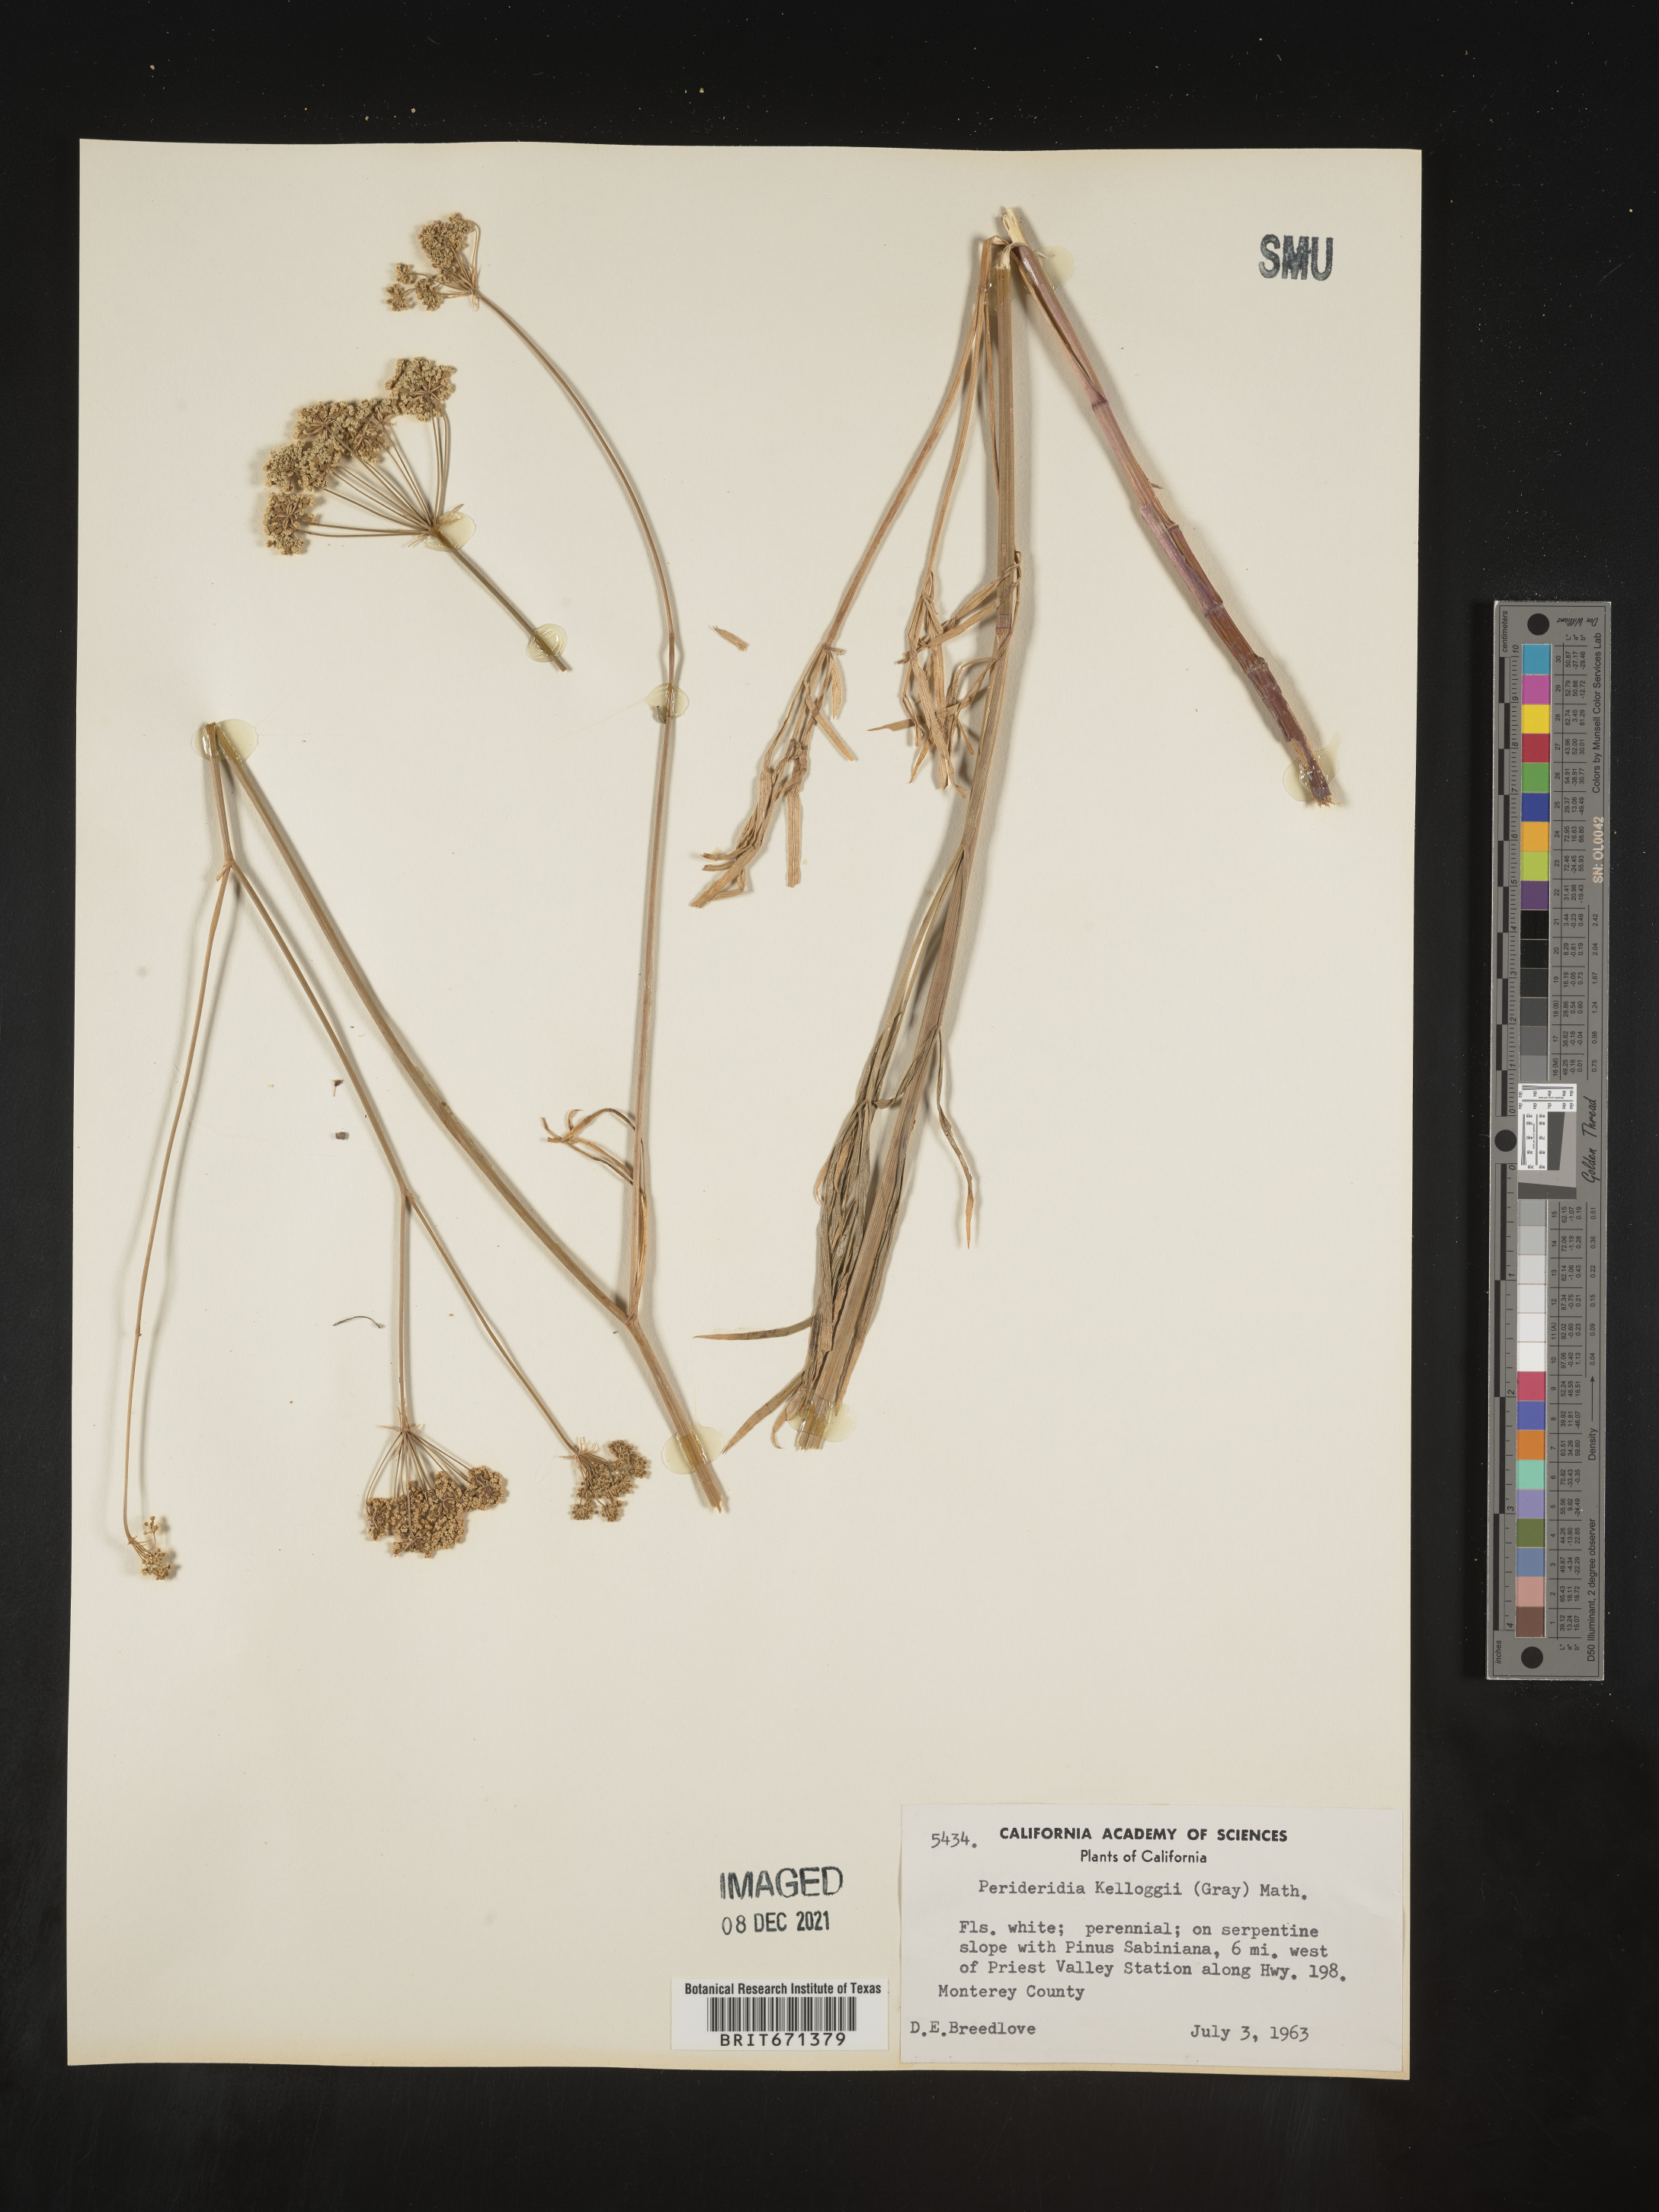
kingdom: Plantae
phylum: Tracheophyta
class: Magnoliopsida
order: Apiales
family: Apiaceae
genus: Perideridia
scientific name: Perideridia kelloggii
